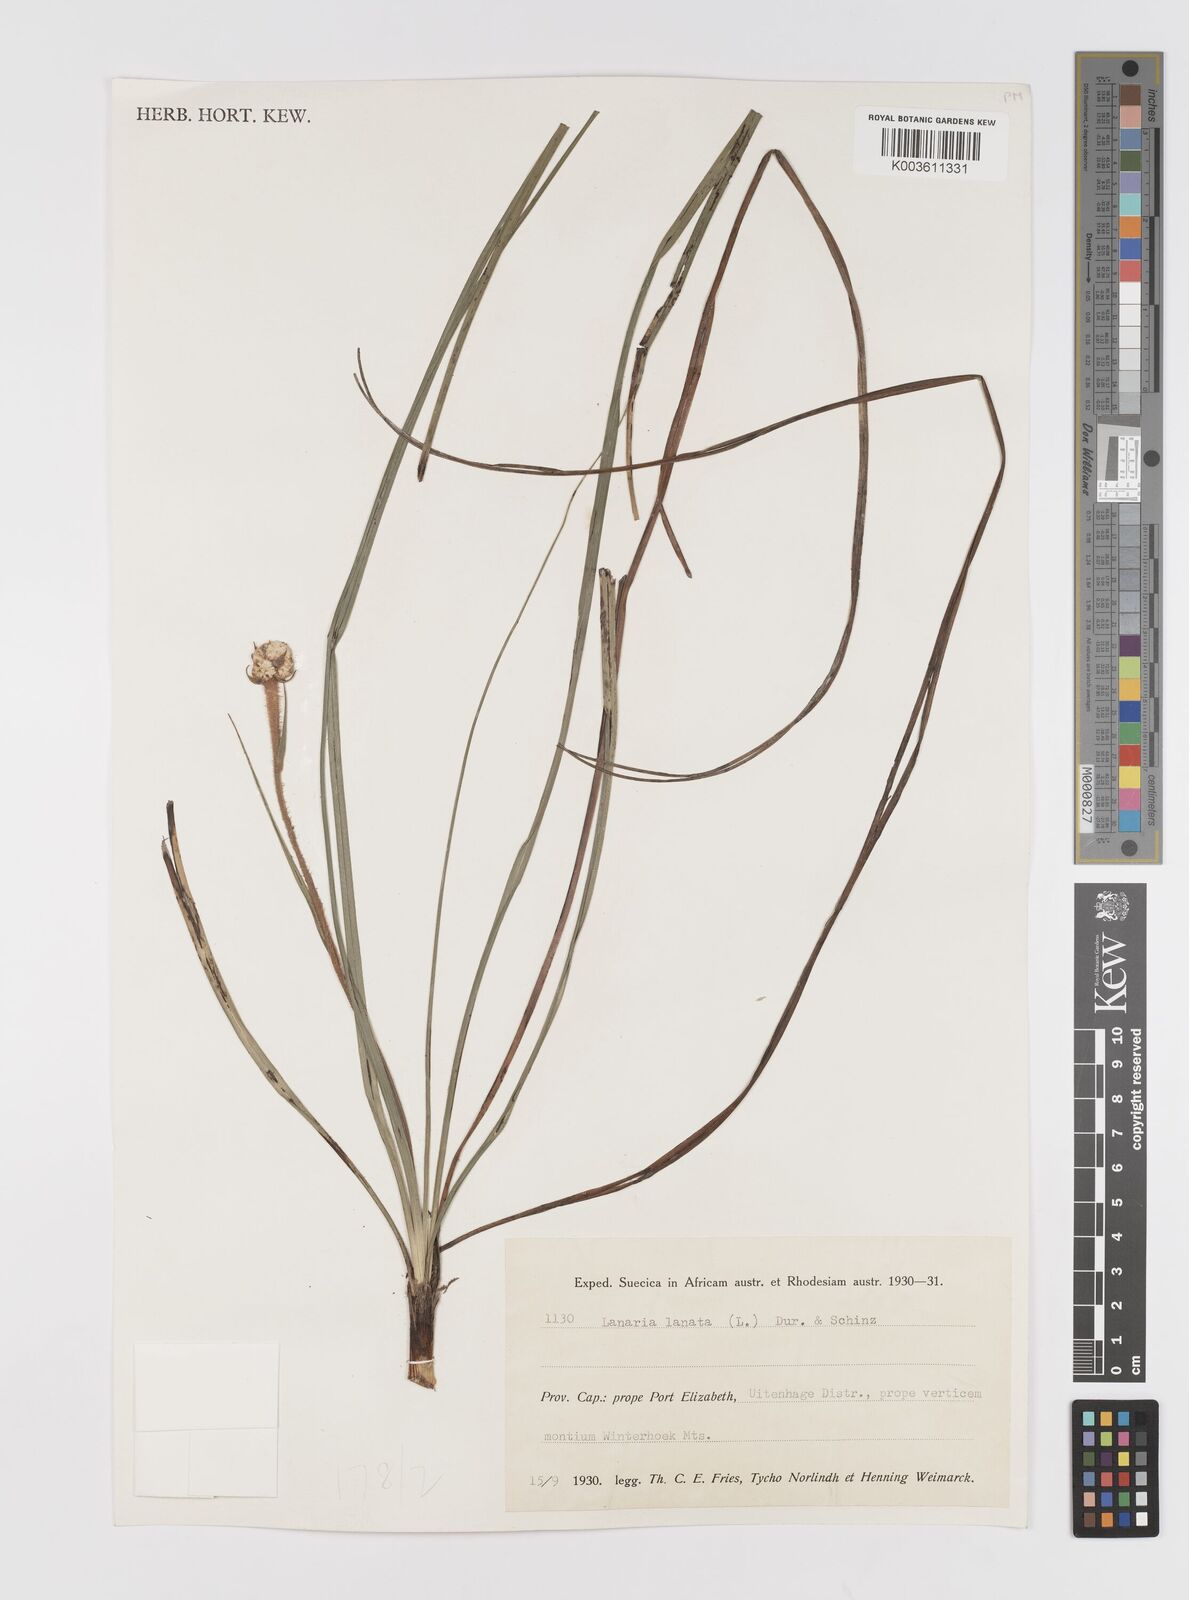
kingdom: Plantae
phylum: Tracheophyta
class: Liliopsida
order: Asparagales
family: Lanariaceae
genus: Lanaria
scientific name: Lanaria lanata
